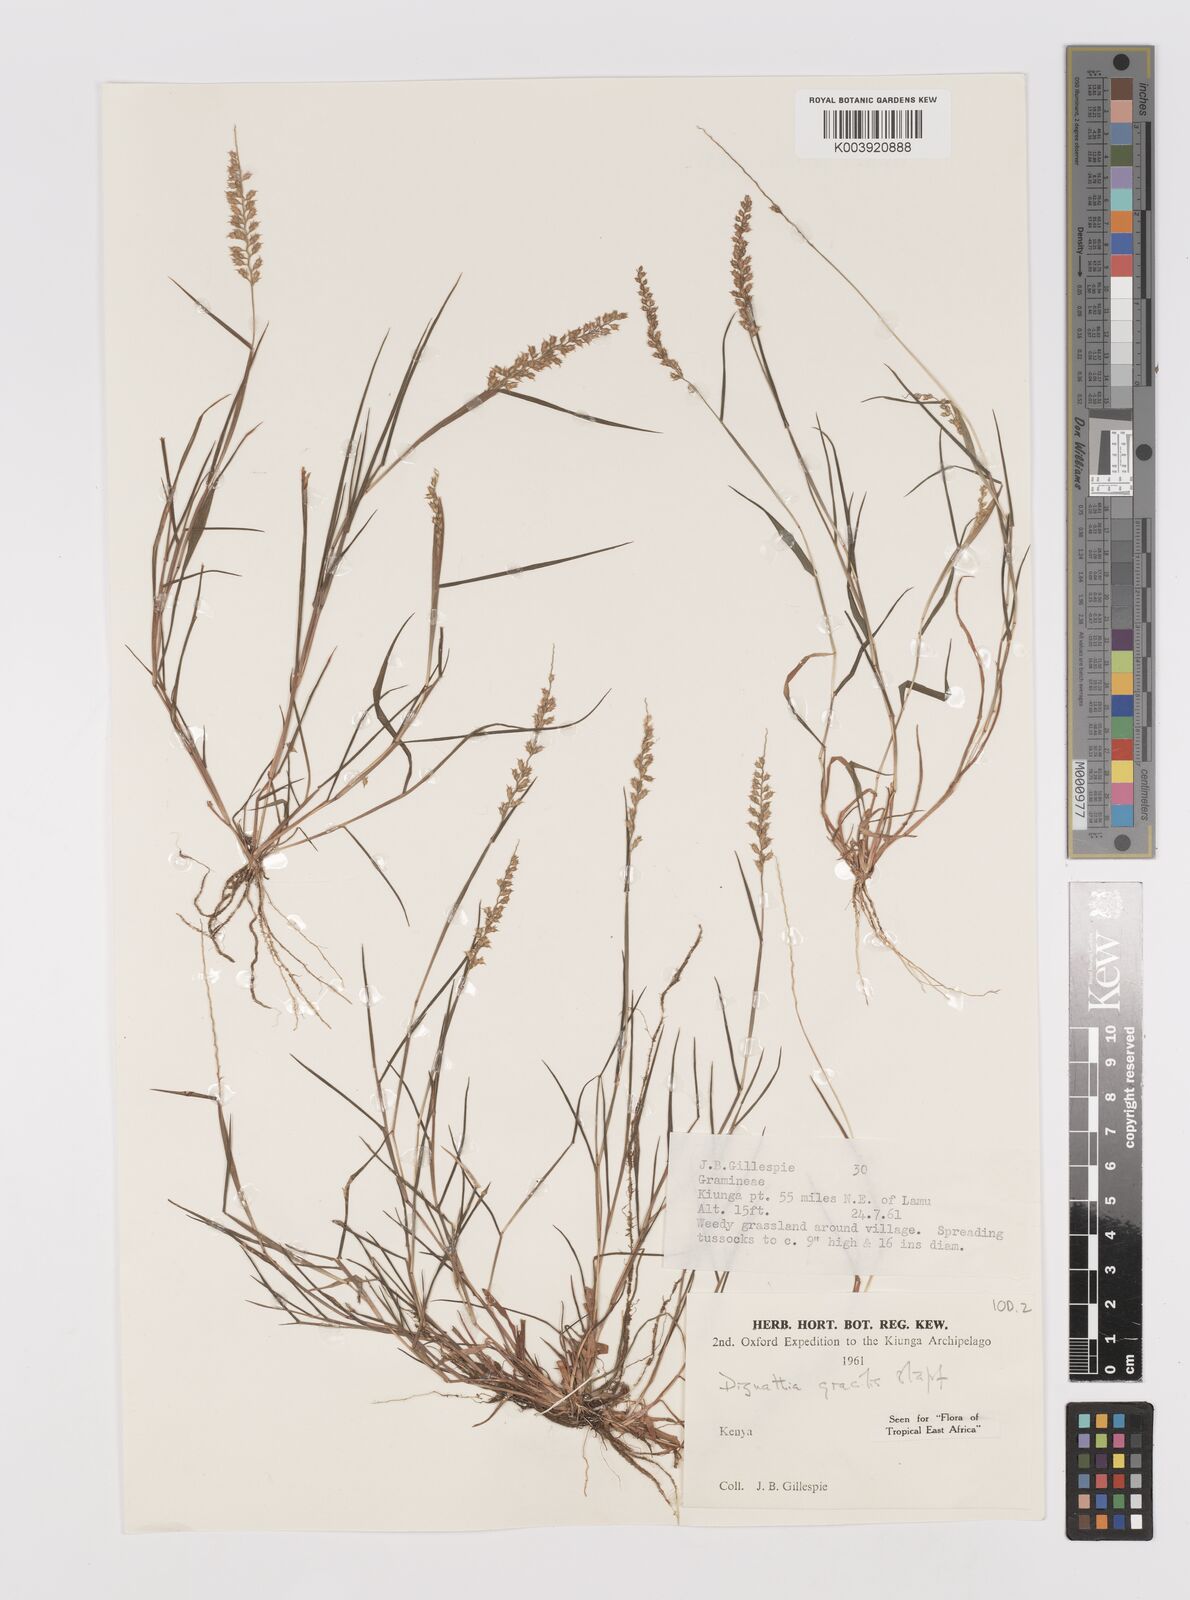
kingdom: Plantae
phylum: Tracheophyta
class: Liliopsida
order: Poales
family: Poaceae
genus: Dignathia
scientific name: Dignathia gracilis
